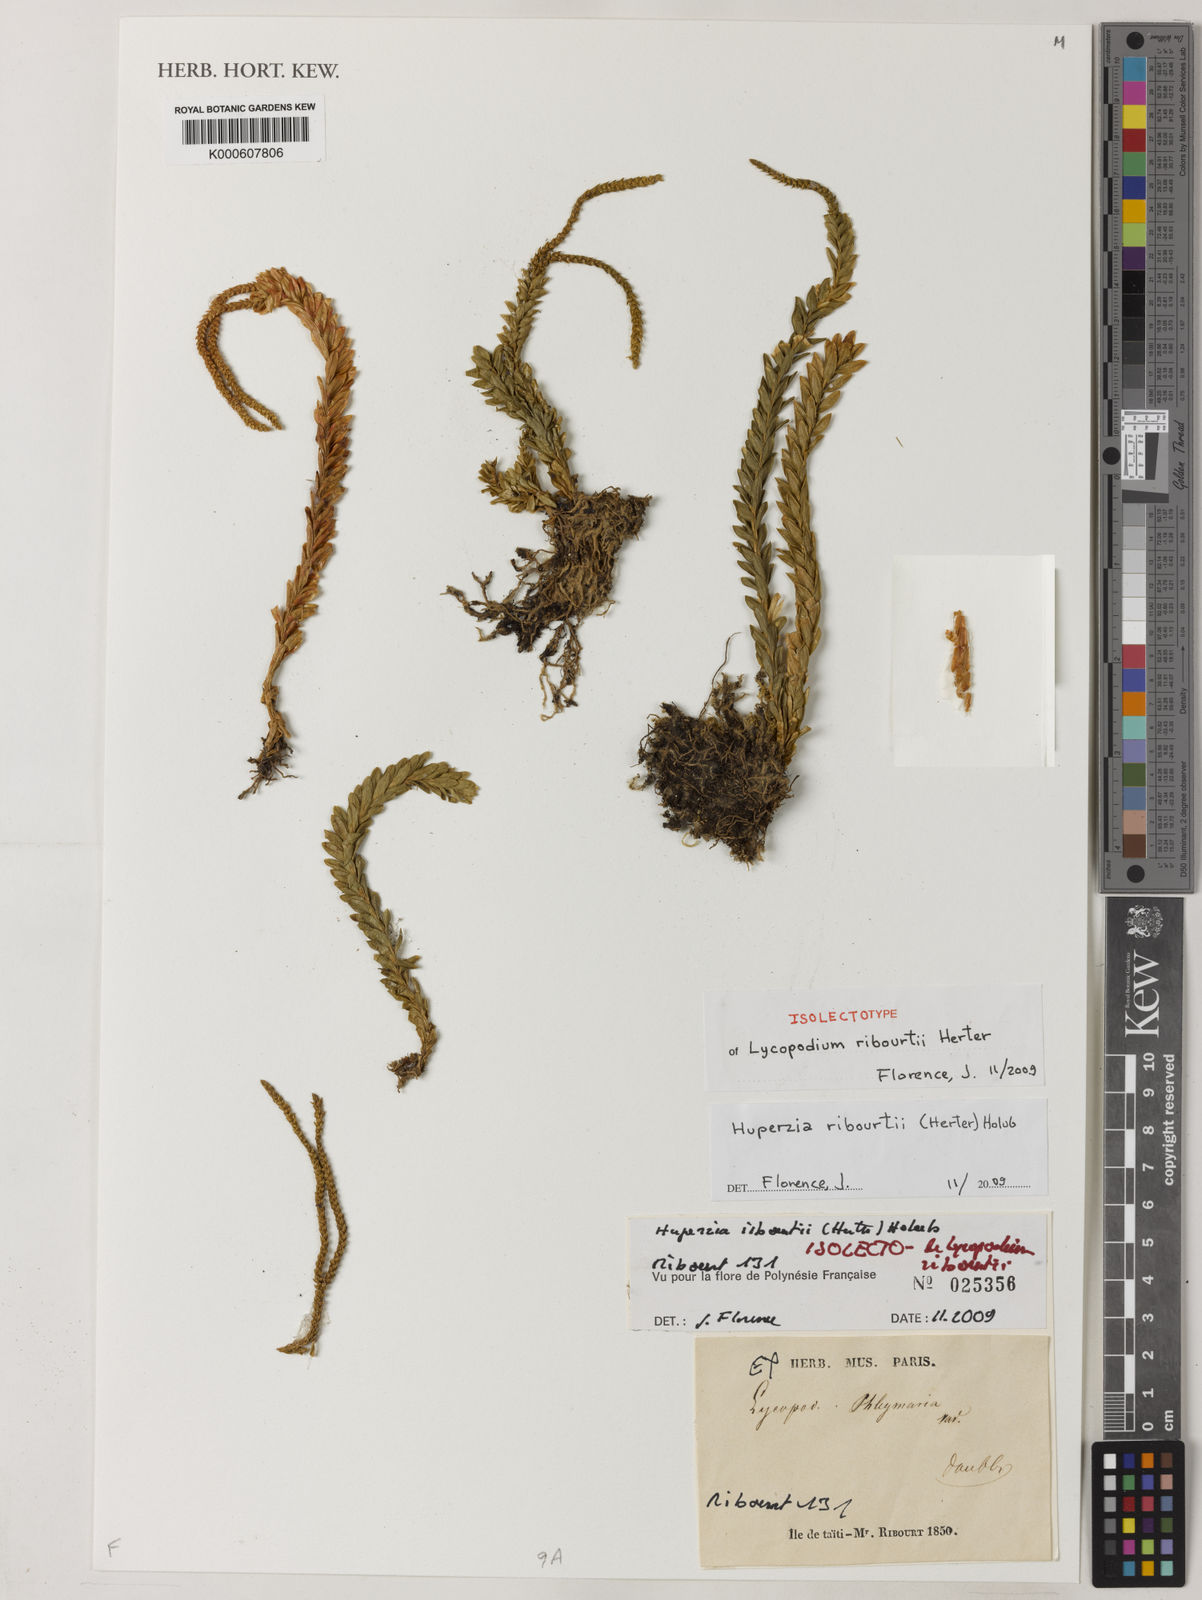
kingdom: Plantae
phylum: Tracheophyta
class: Lycopodiopsida
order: Lycopodiales
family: Lycopodiaceae
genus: Phlegmariurus
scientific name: Phlegmariurus ribourtii
